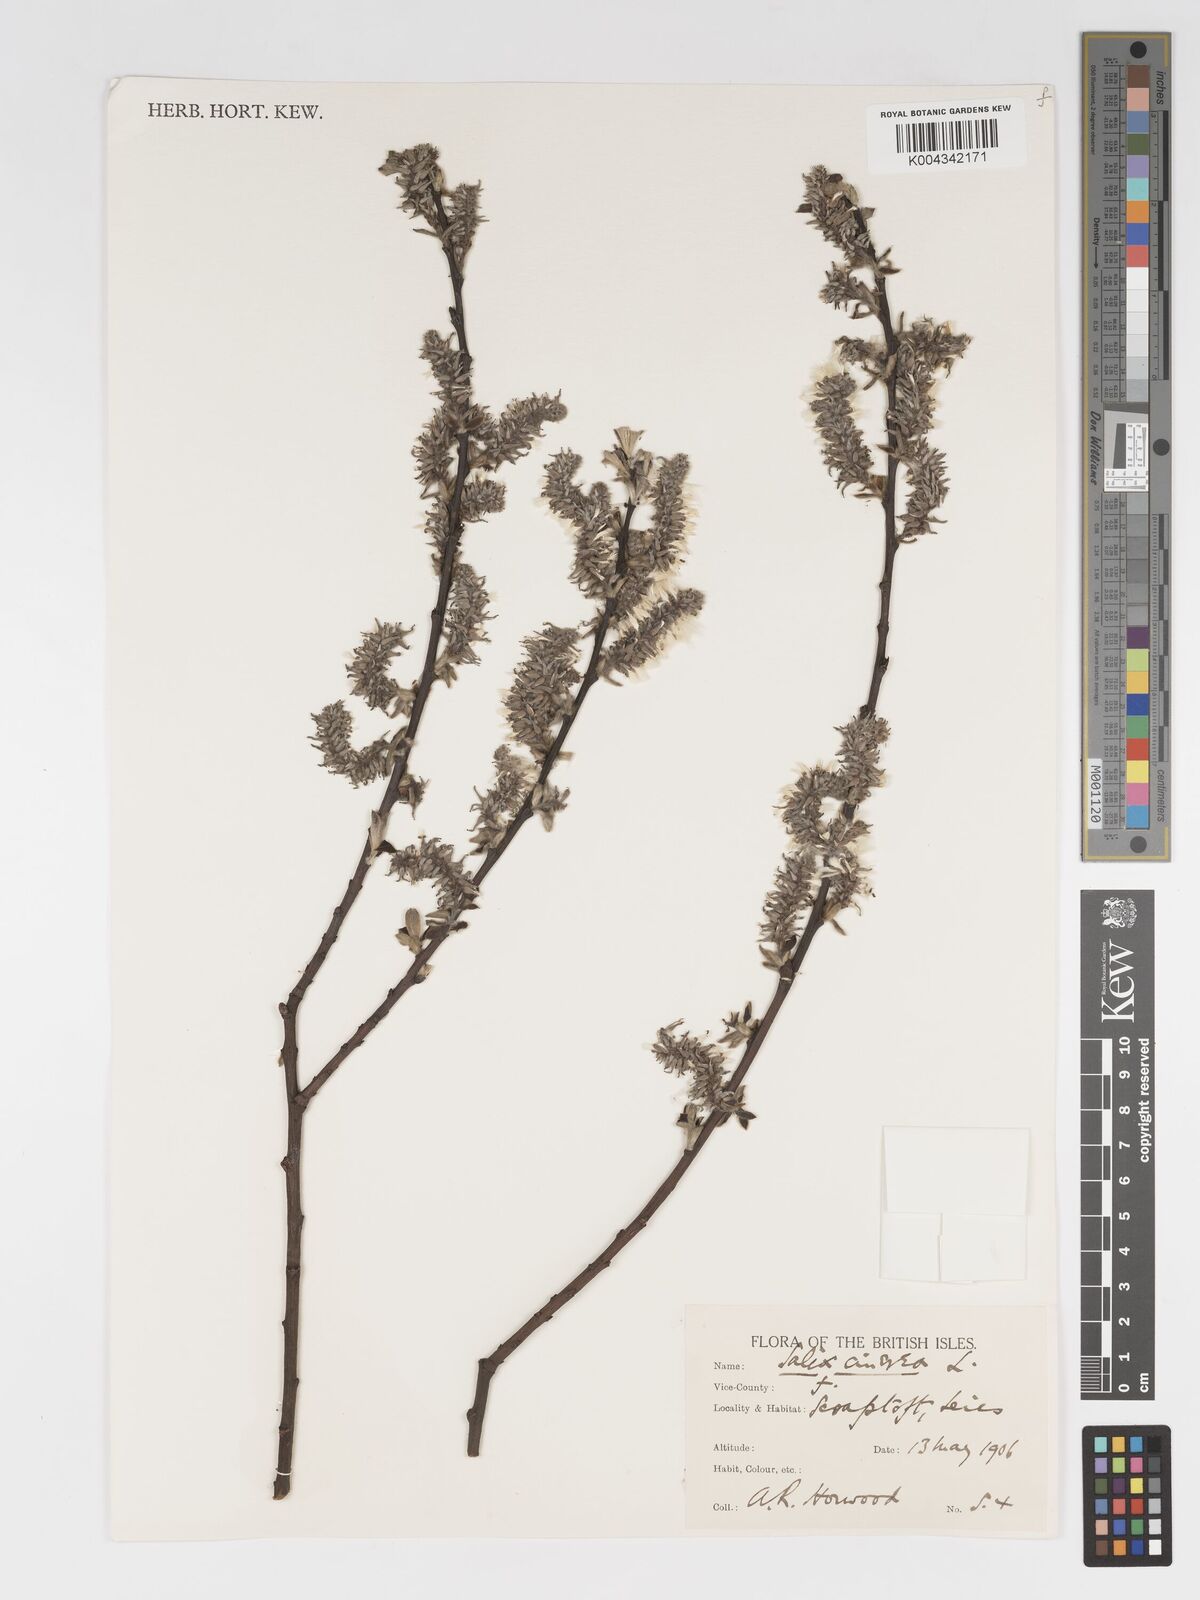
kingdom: Plantae
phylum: Tracheophyta
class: Magnoliopsida
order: Malpighiales
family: Salicaceae
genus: Salix
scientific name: Salix
